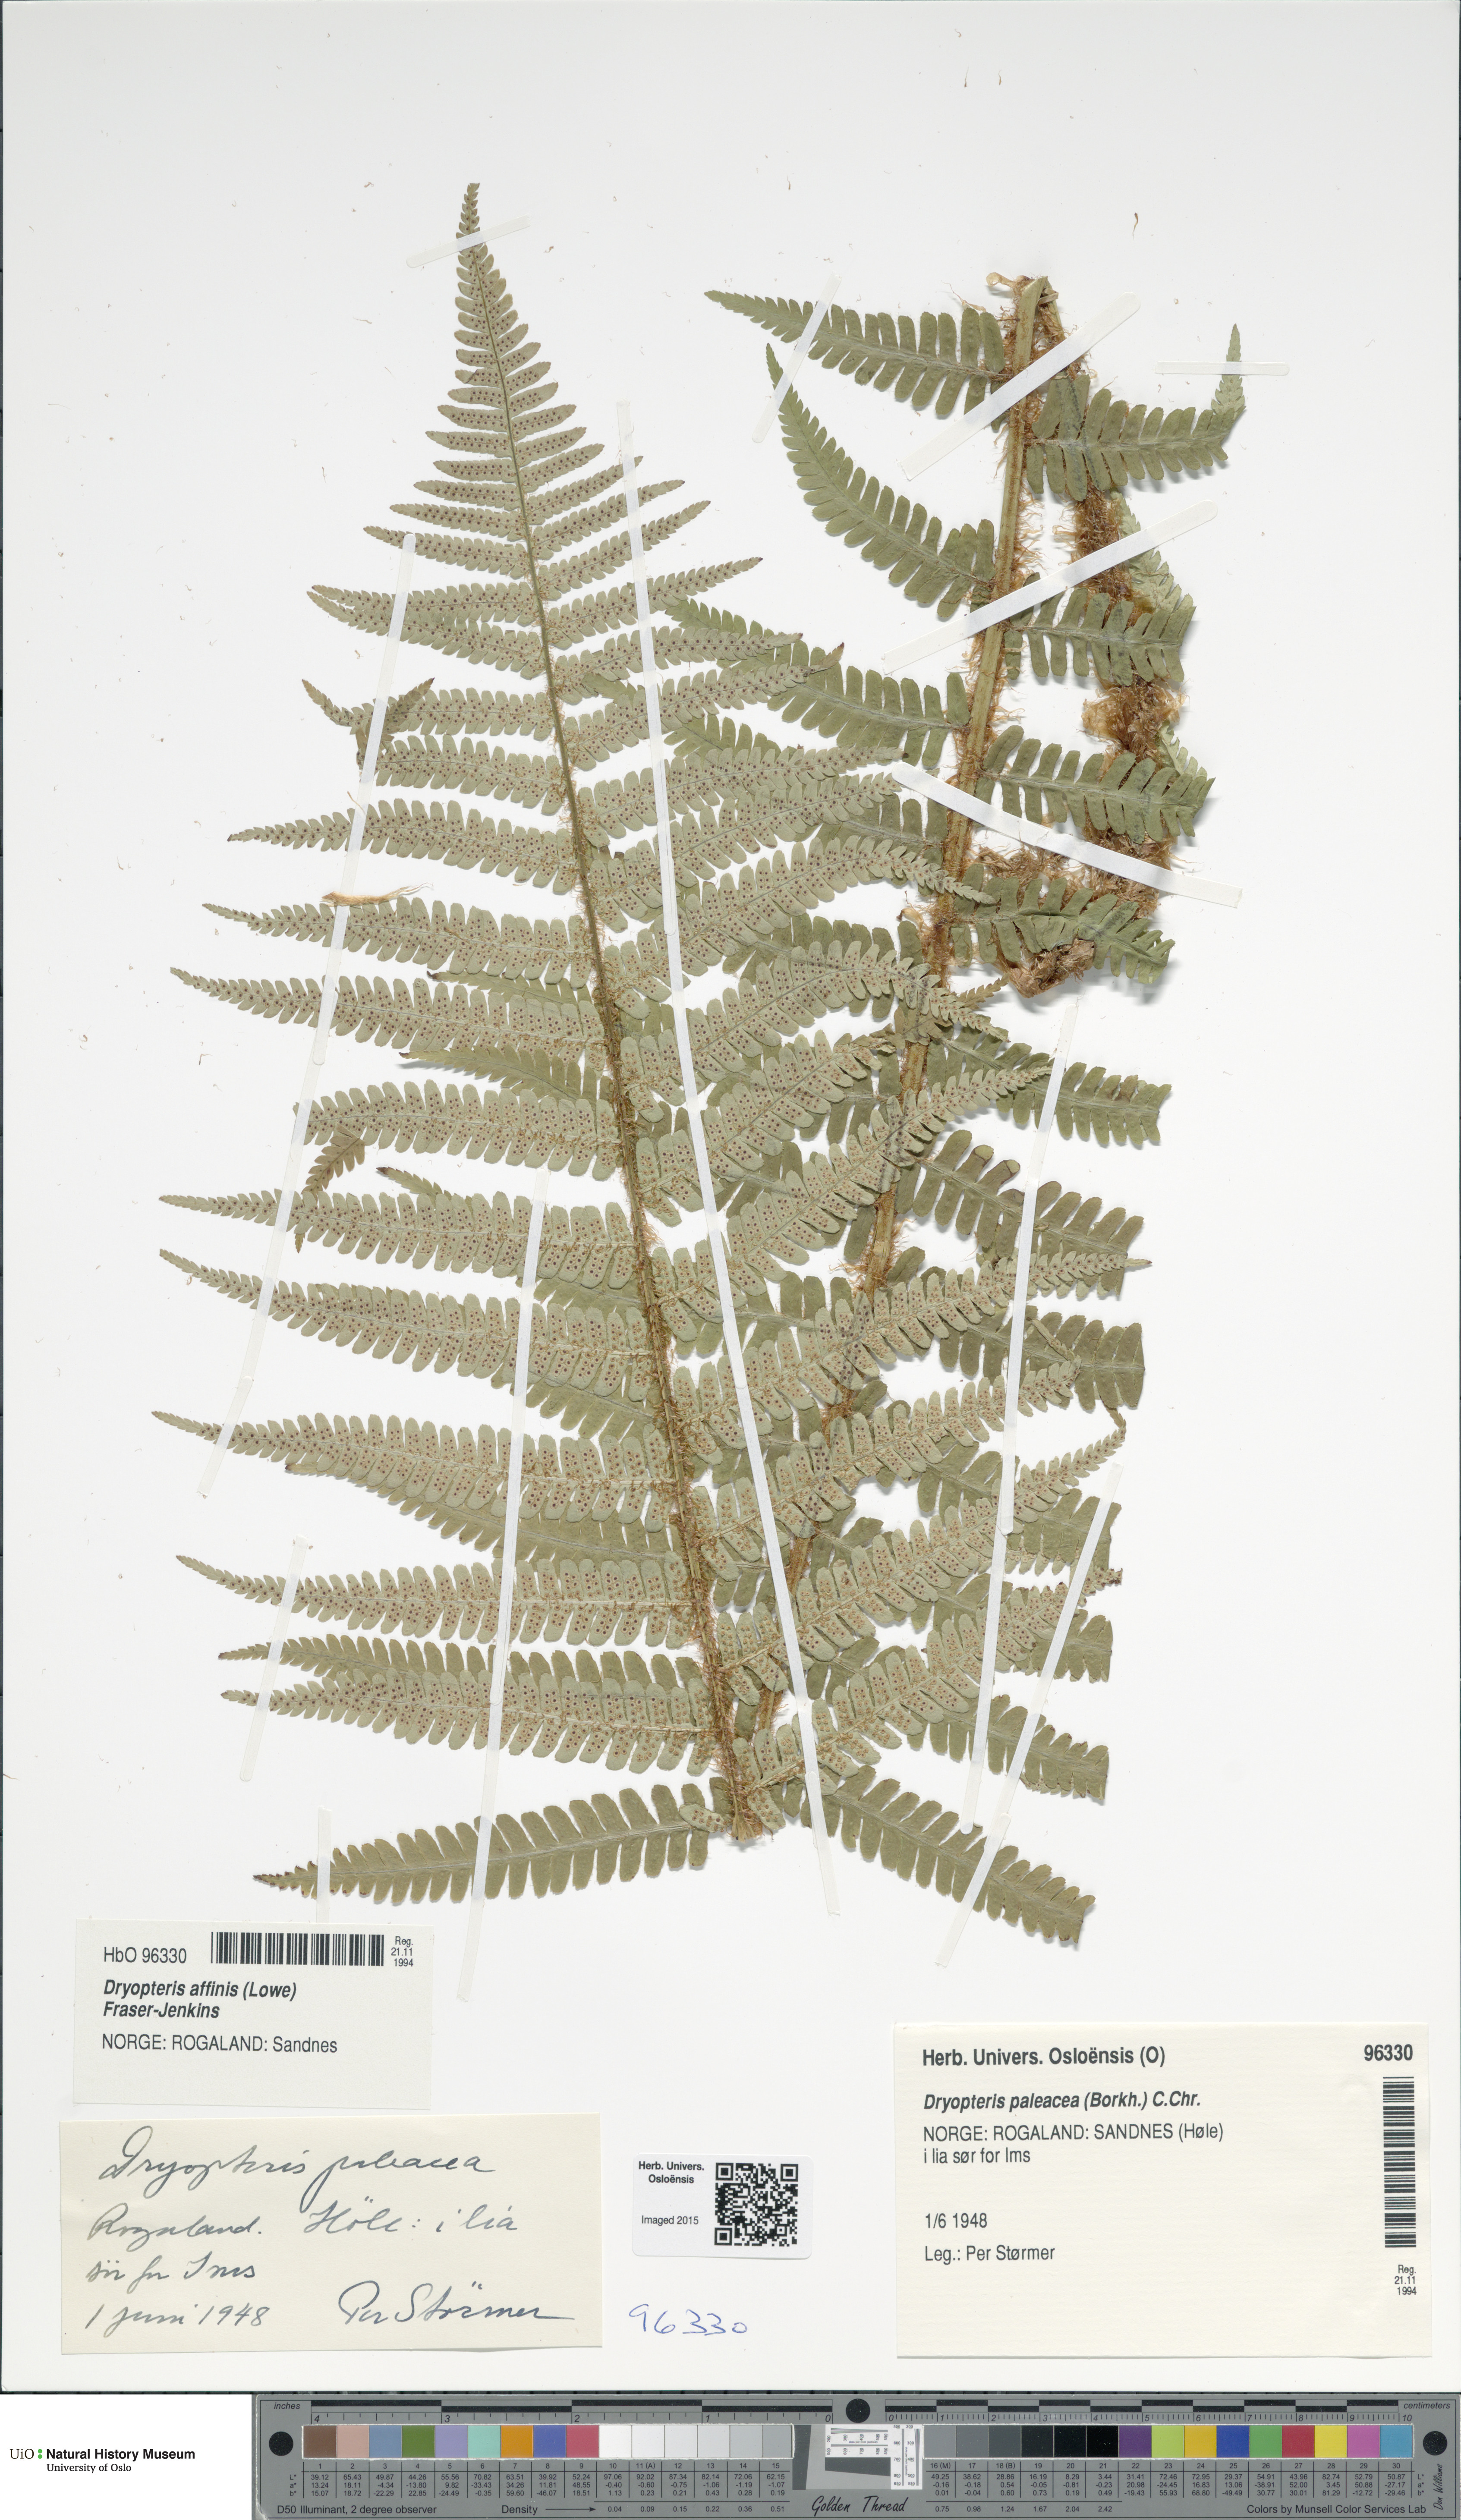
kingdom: Plantae
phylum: Tracheophyta
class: Polypodiopsida
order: Polypodiales
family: Dryopteridaceae
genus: Dryopteris
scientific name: Dryopteris wallichiana
